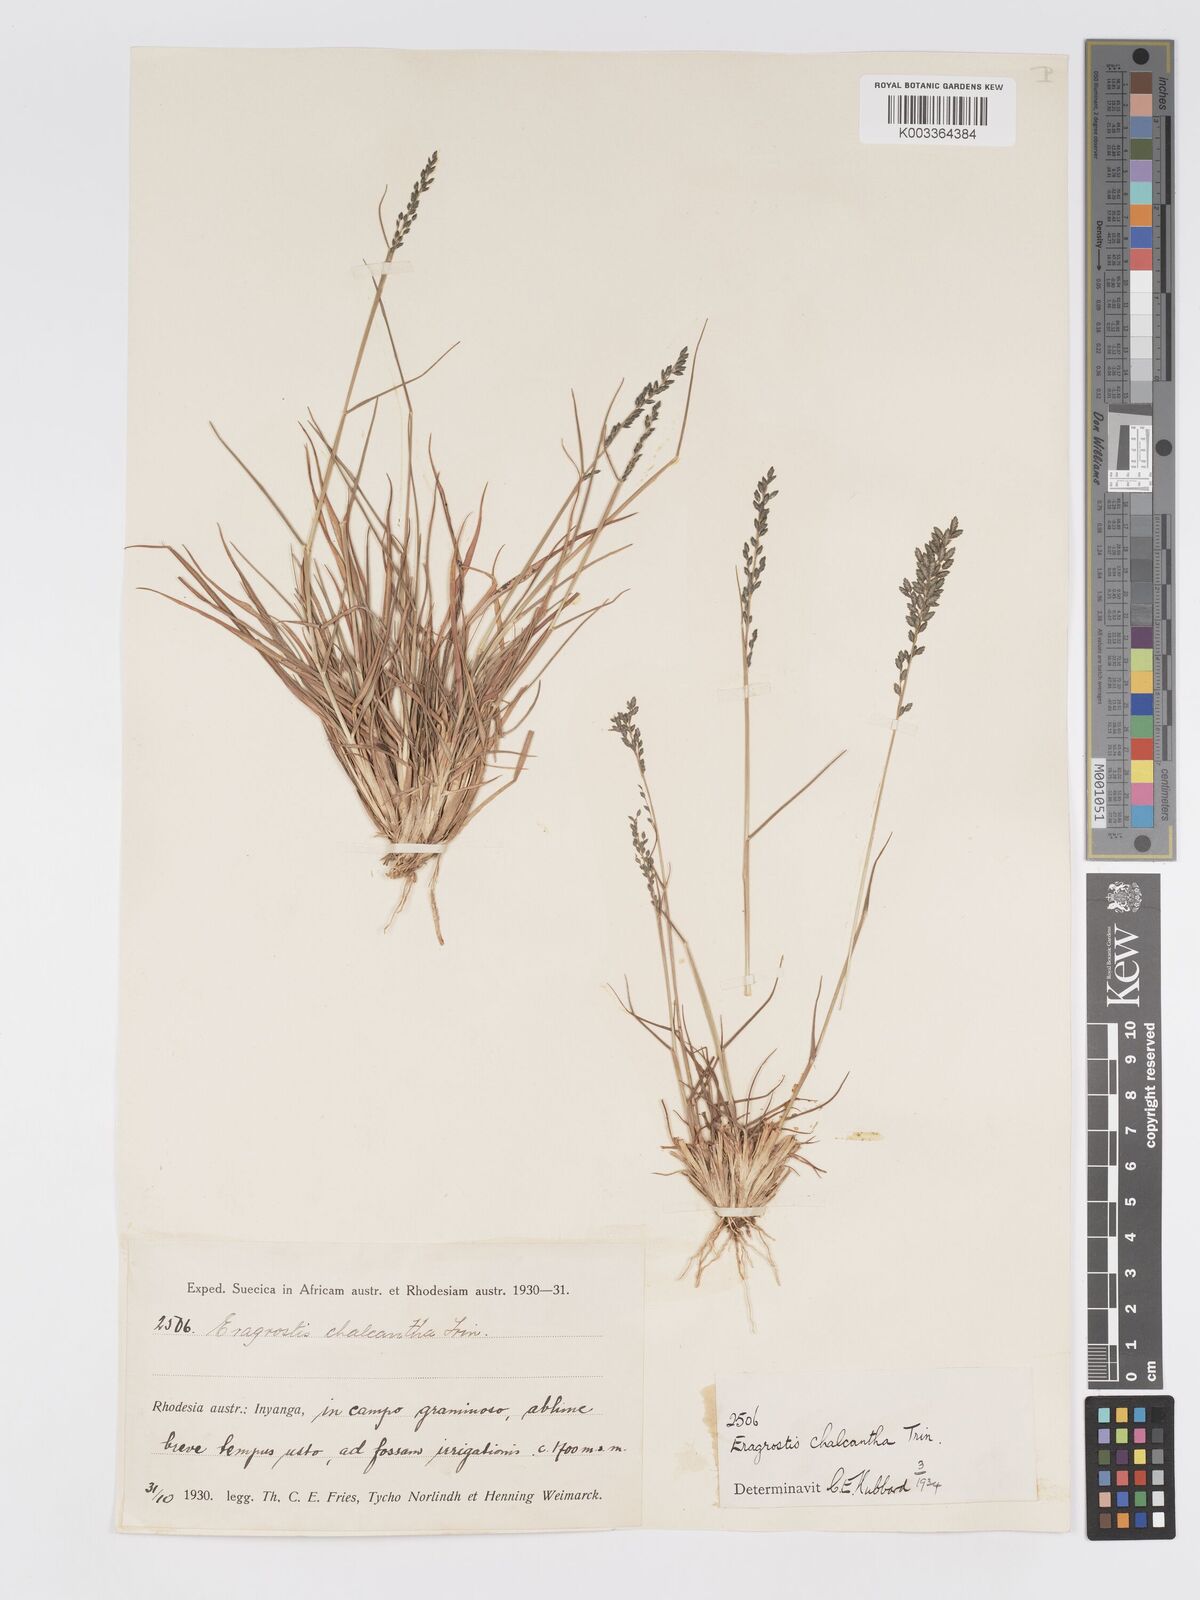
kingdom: Plantae
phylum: Tracheophyta
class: Liliopsida
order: Poales
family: Poaceae
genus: Eragrostis
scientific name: Eragrostis racemosa
